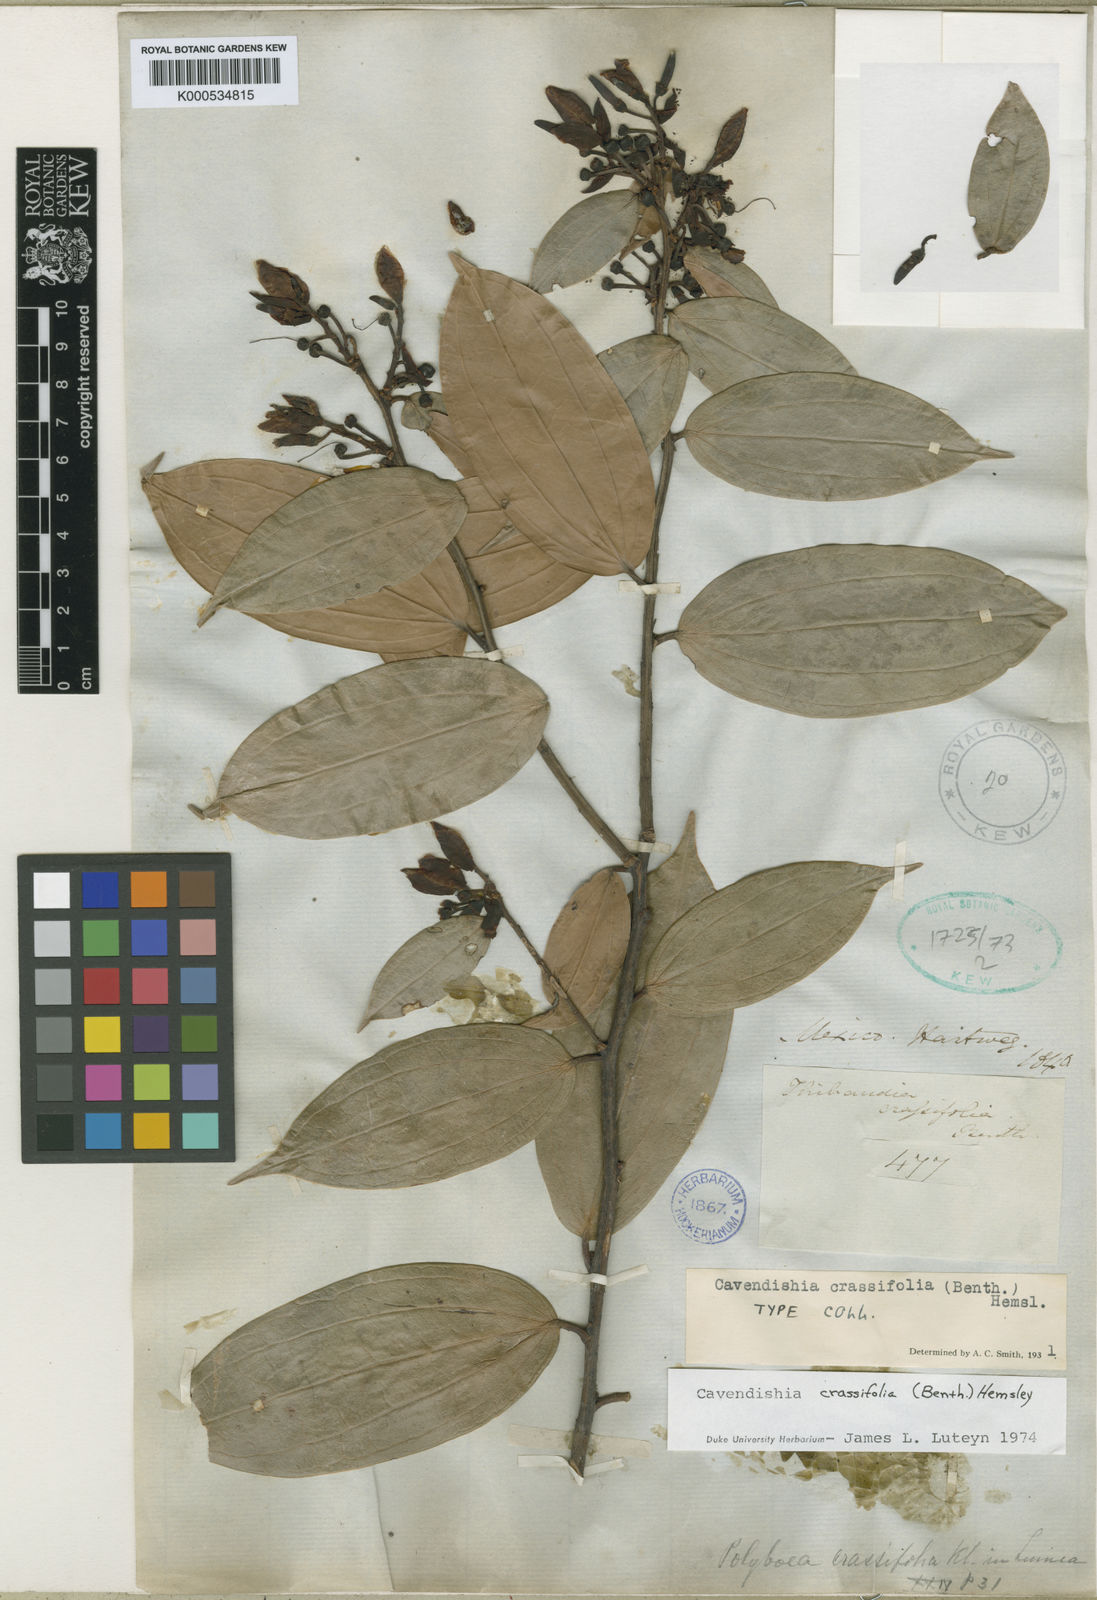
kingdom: Plantae
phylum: Tracheophyta
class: Magnoliopsida
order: Ericales
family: Ericaceae
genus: Cavendishia
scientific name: Cavendishia
